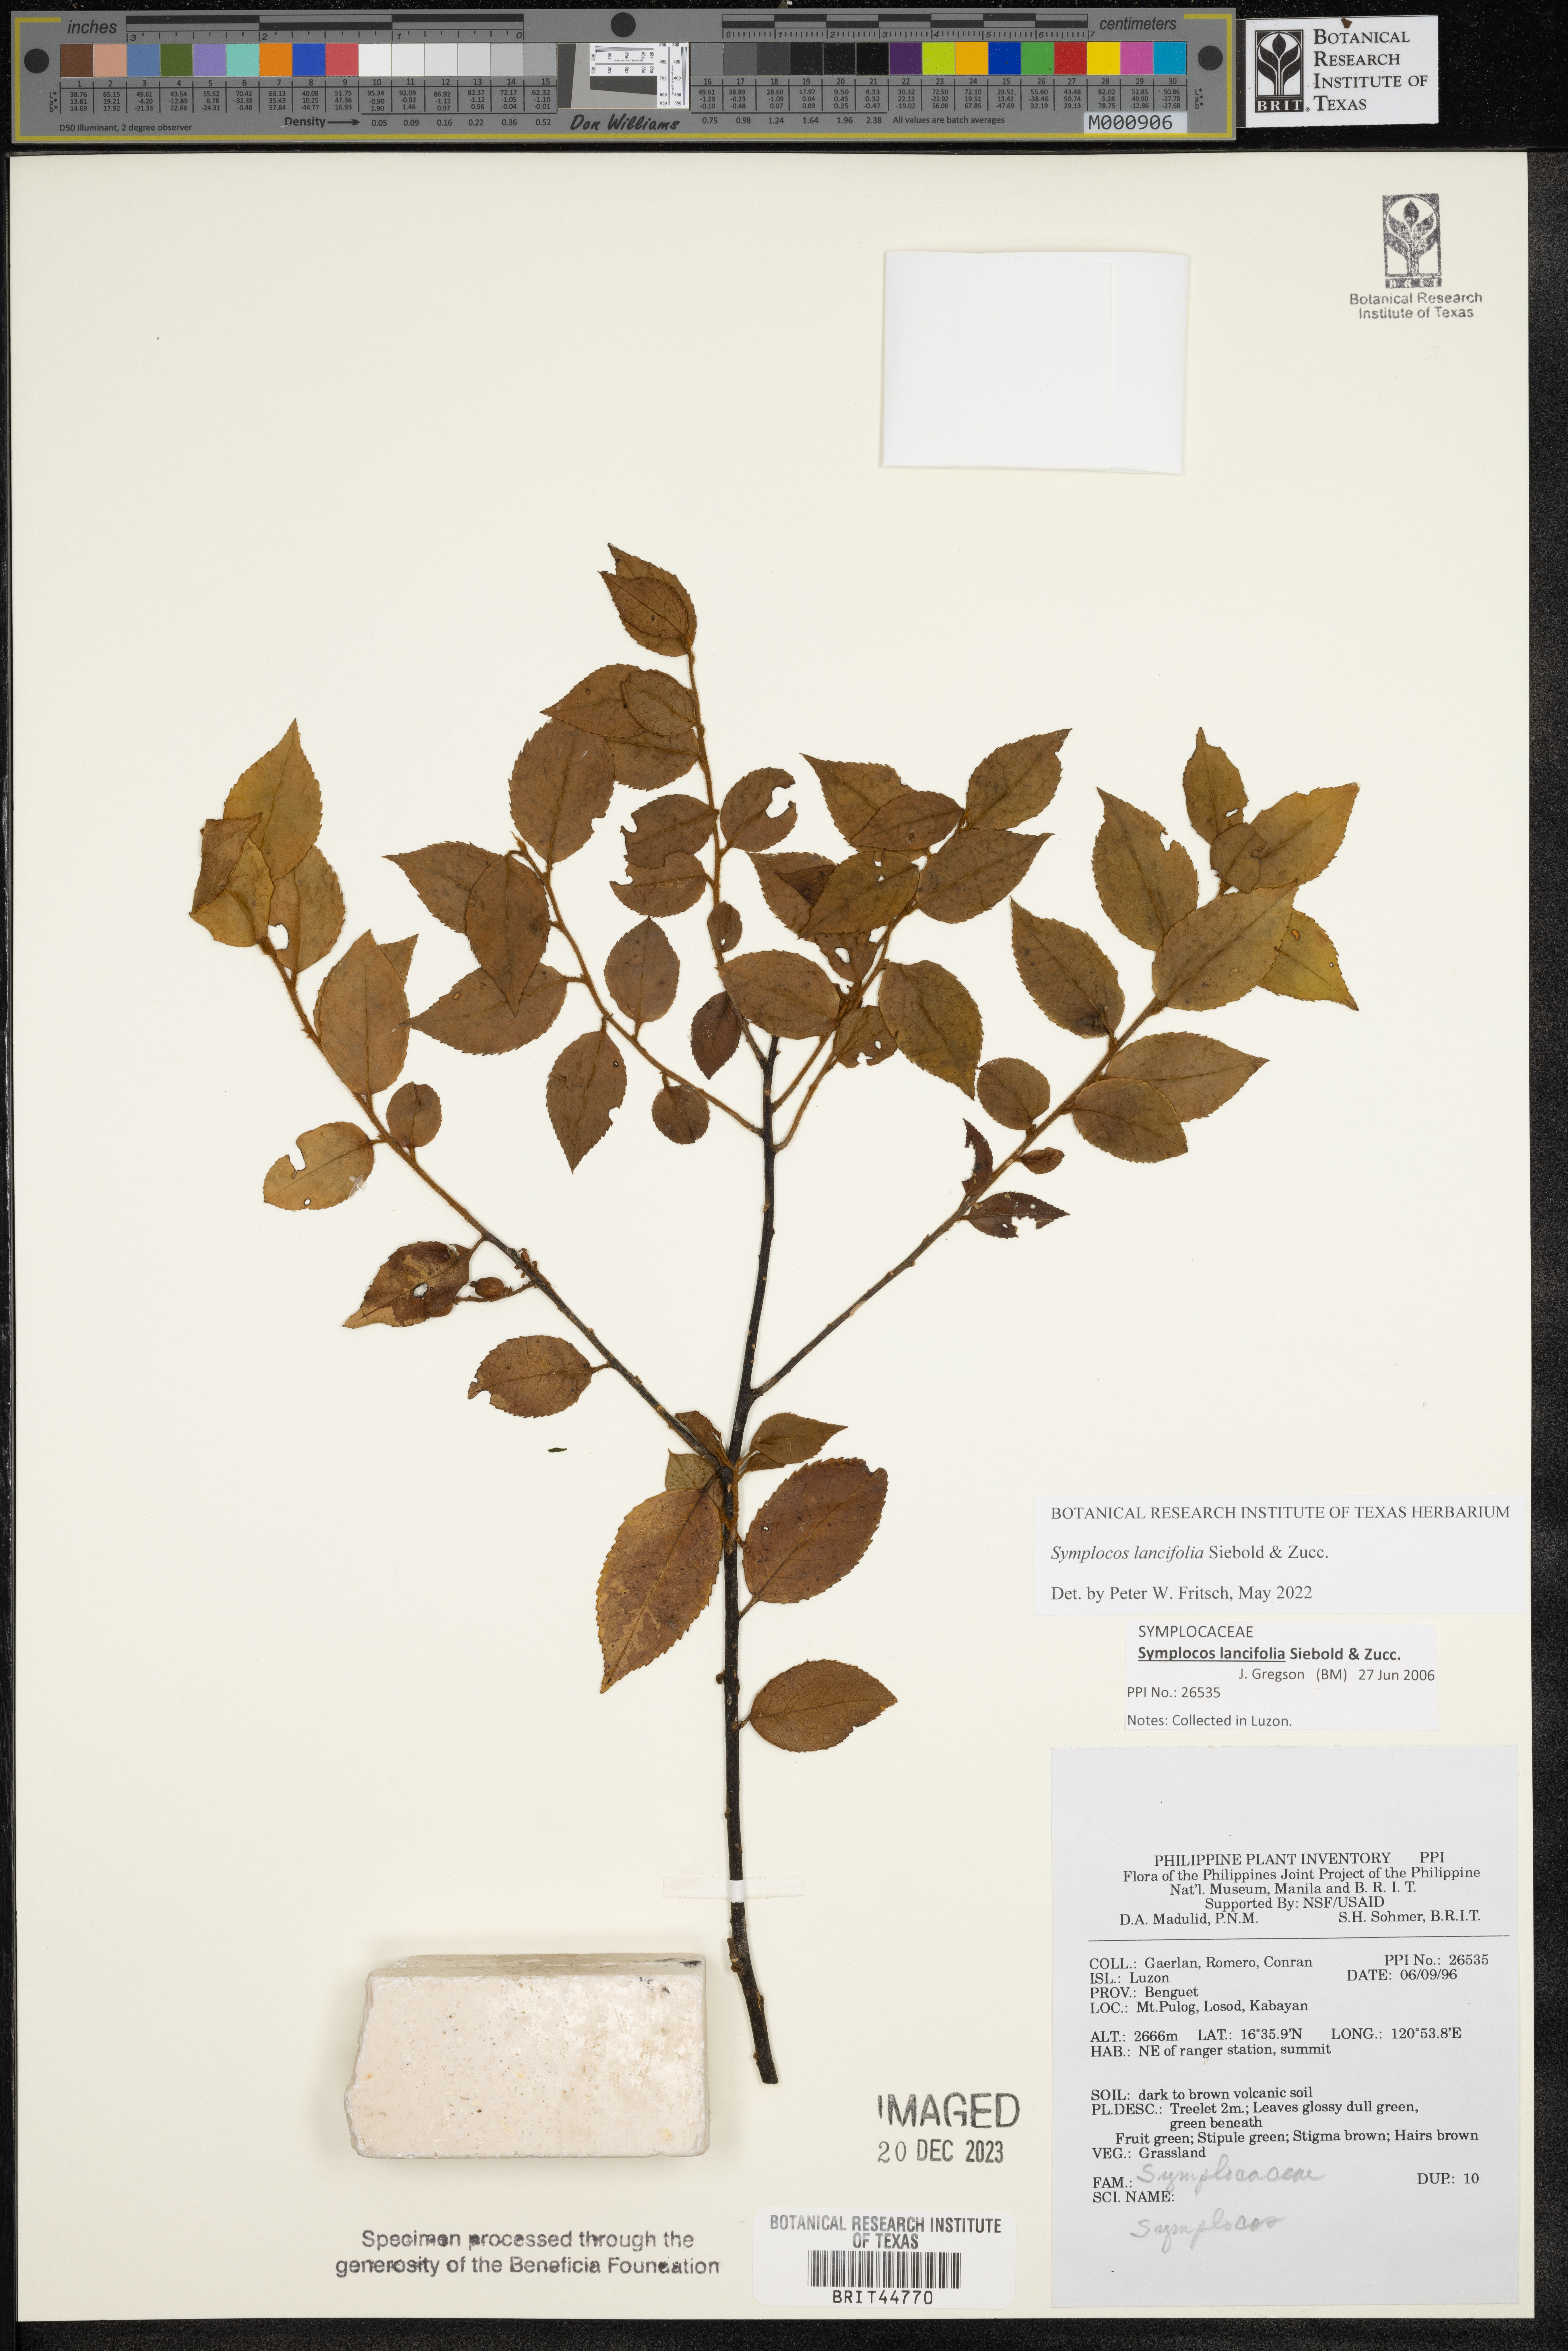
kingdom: Plantae
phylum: Tracheophyta
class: Magnoliopsida
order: Ericales
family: Symplocaceae
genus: Symplocos
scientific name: Symplocos
